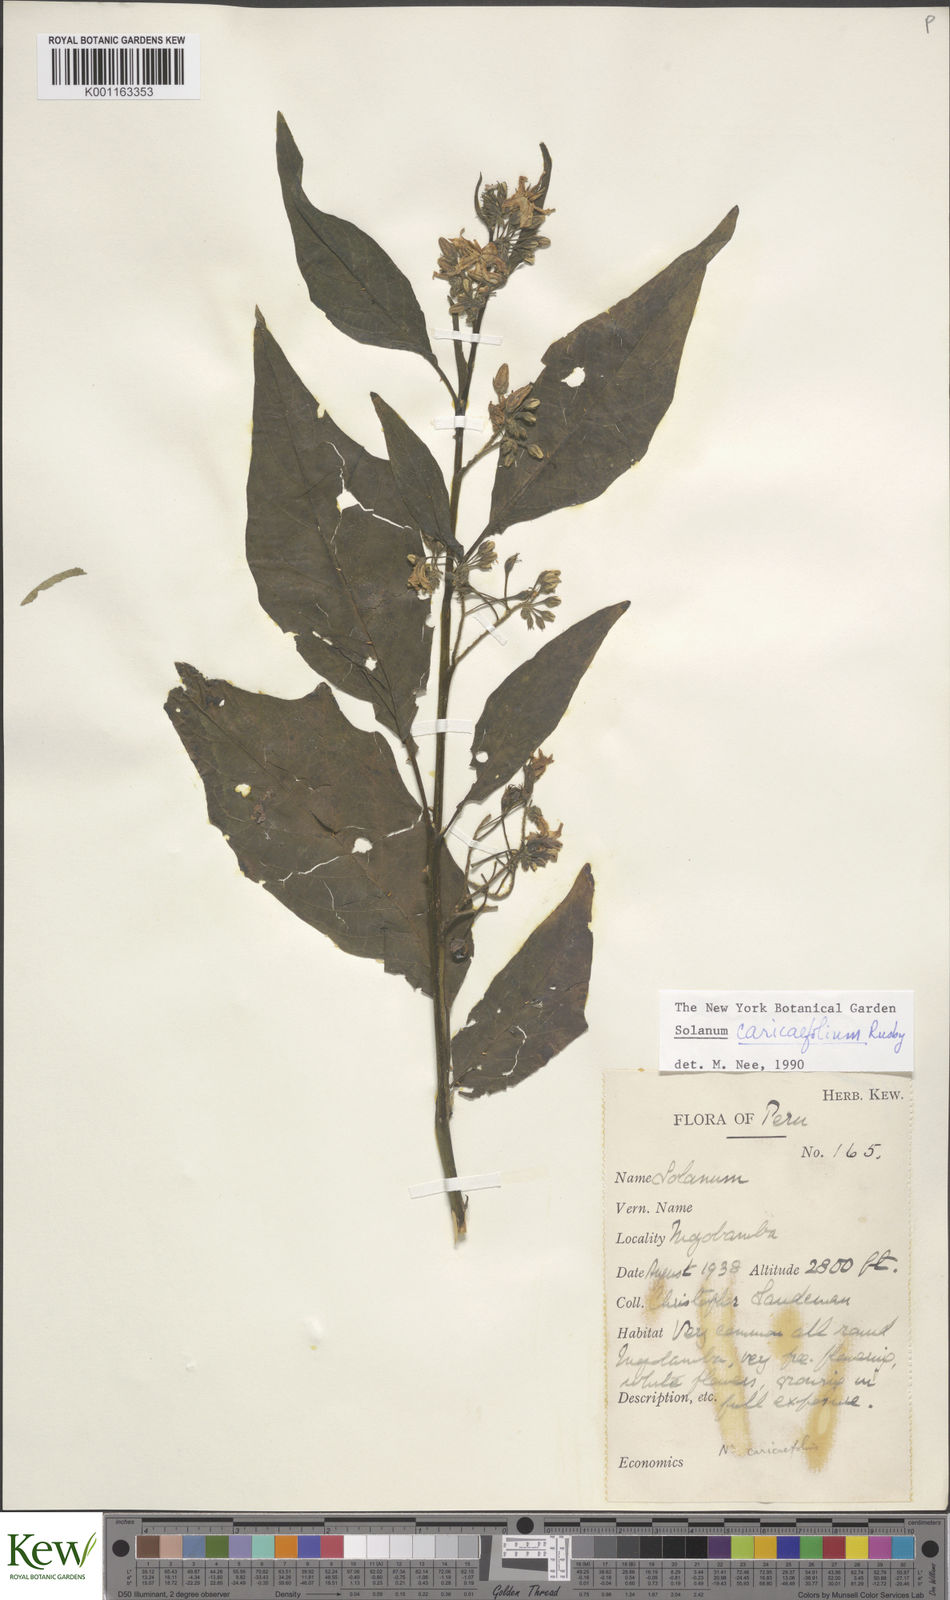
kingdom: Plantae
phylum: Tracheophyta
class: Magnoliopsida
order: Solanales
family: Solanaceae
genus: Solanum
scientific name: Solanum caricaefolium
